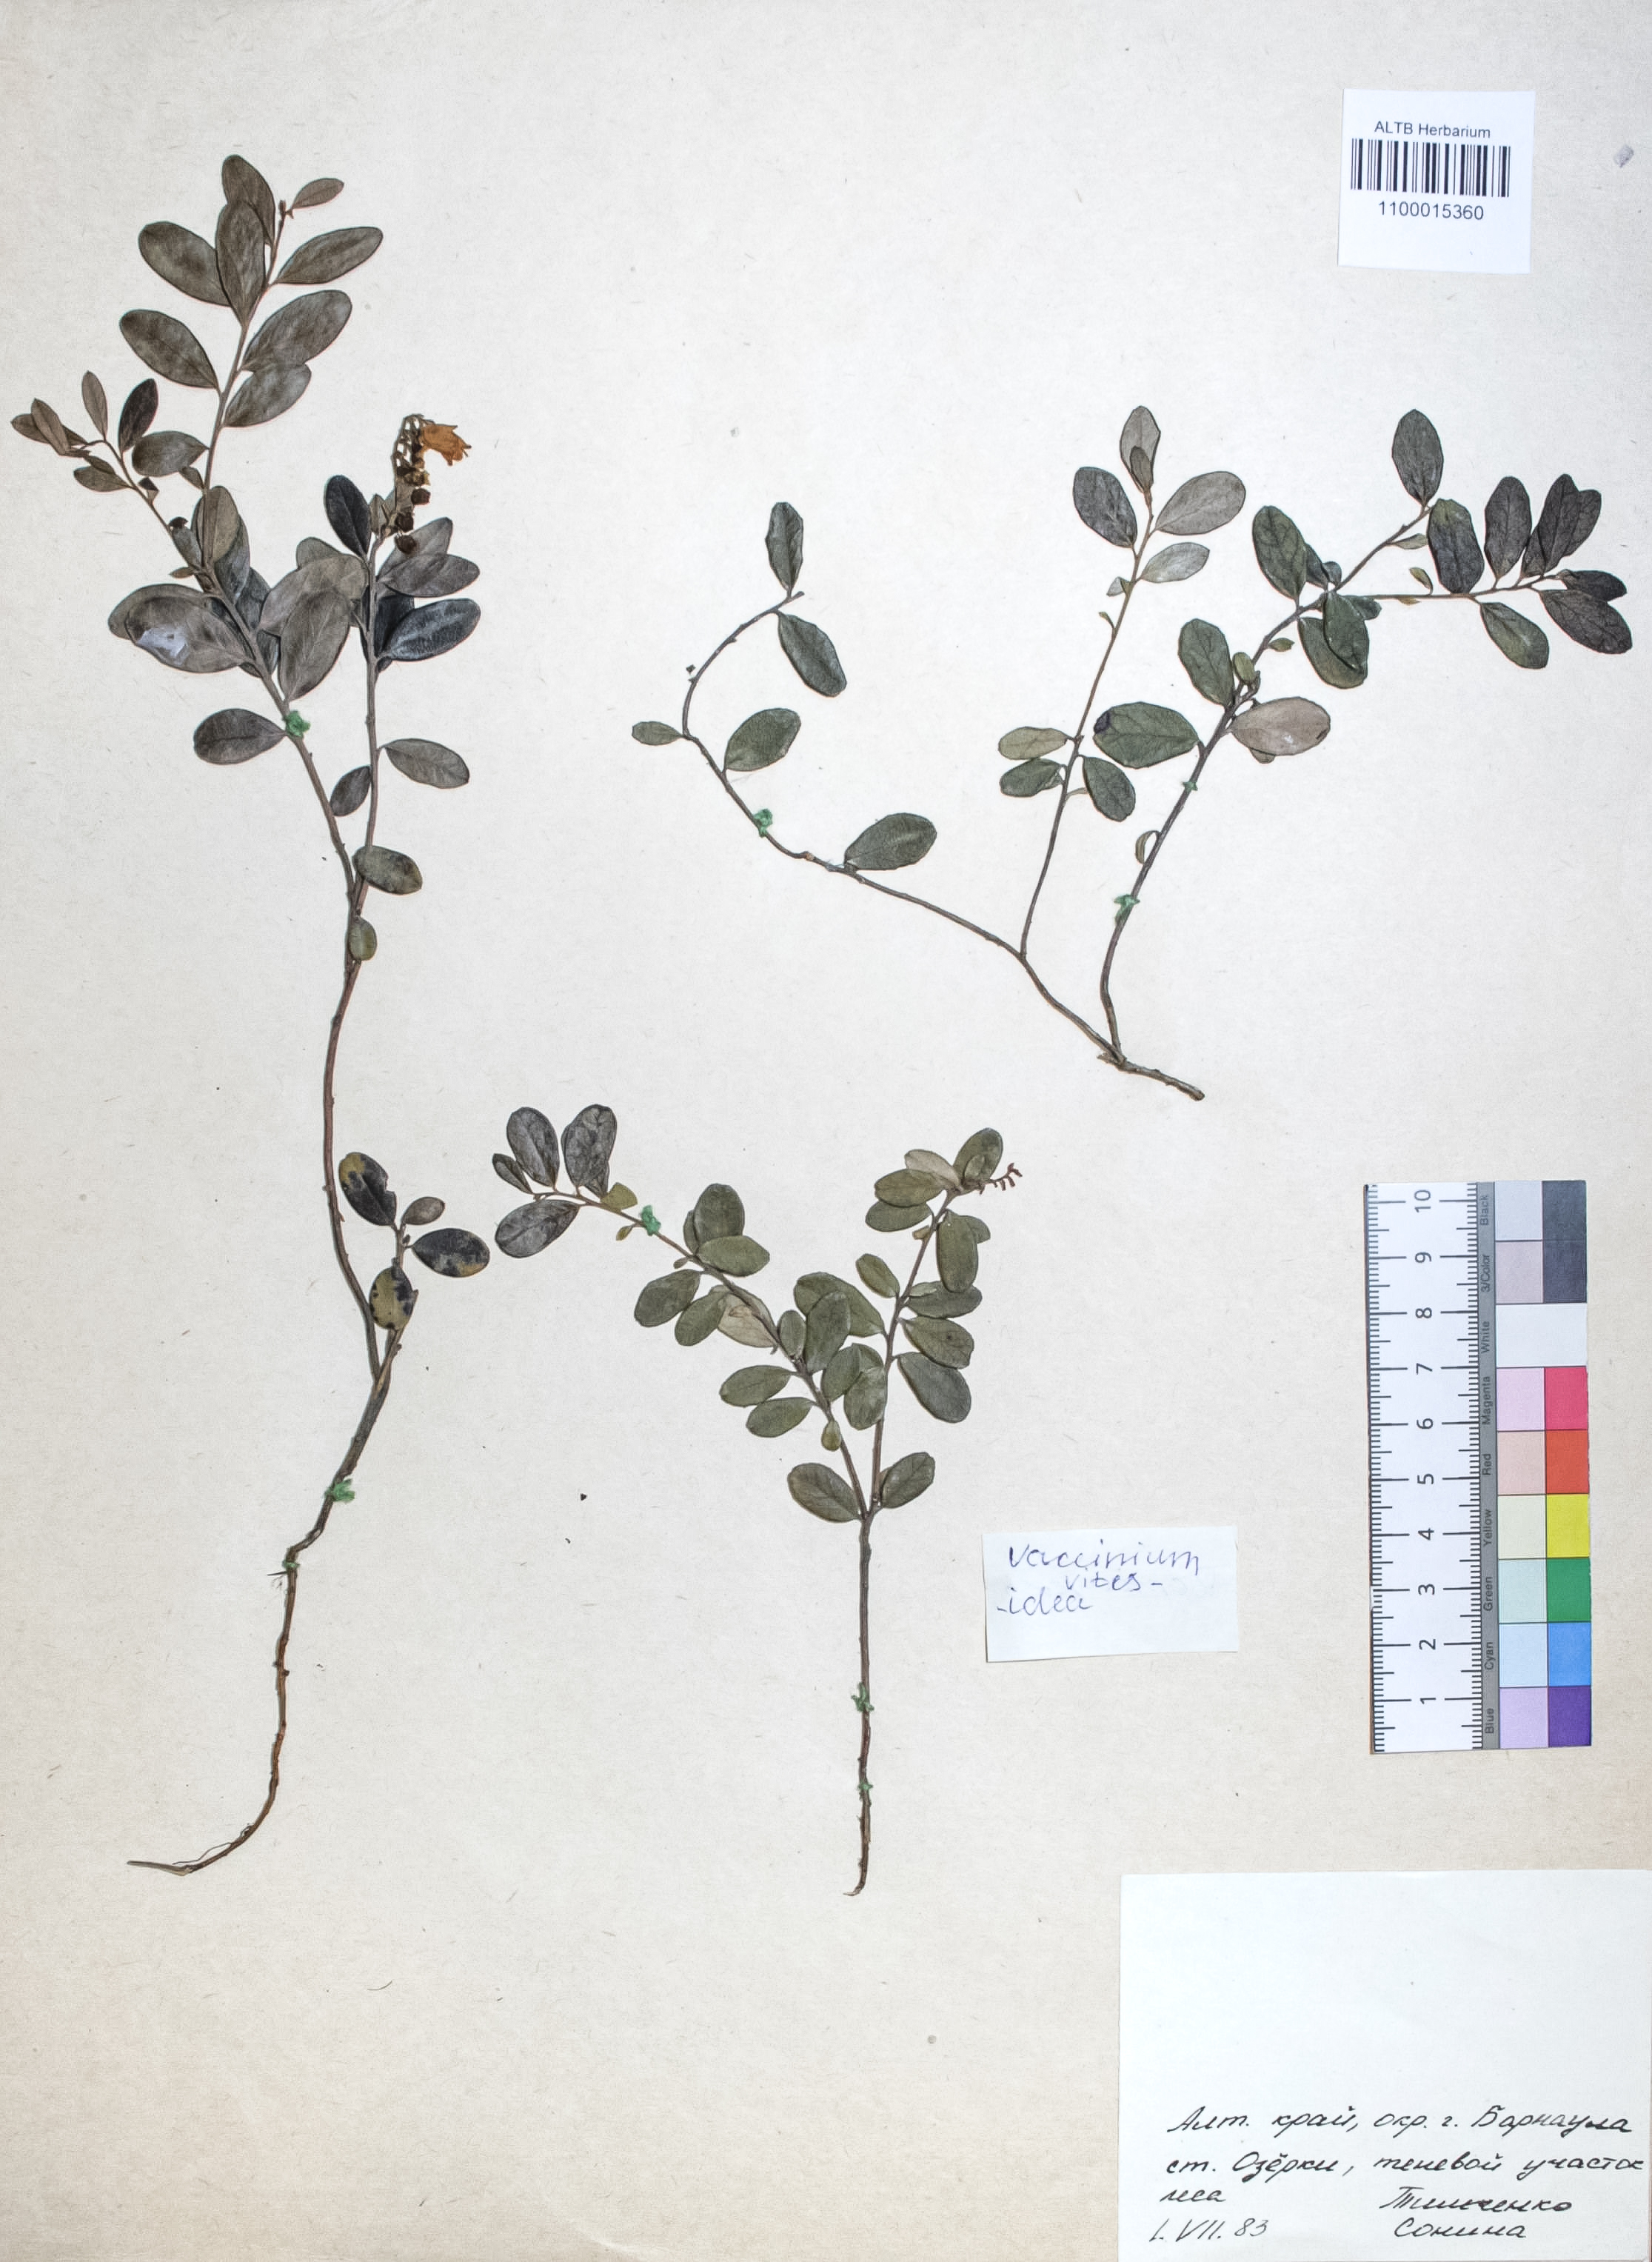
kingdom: Plantae
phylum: Tracheophyta
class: Magnoliopsida
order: Ericales
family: Ericaceae
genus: Vaccinium
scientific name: Vaccinium vitis-idaea
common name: Cowberry
